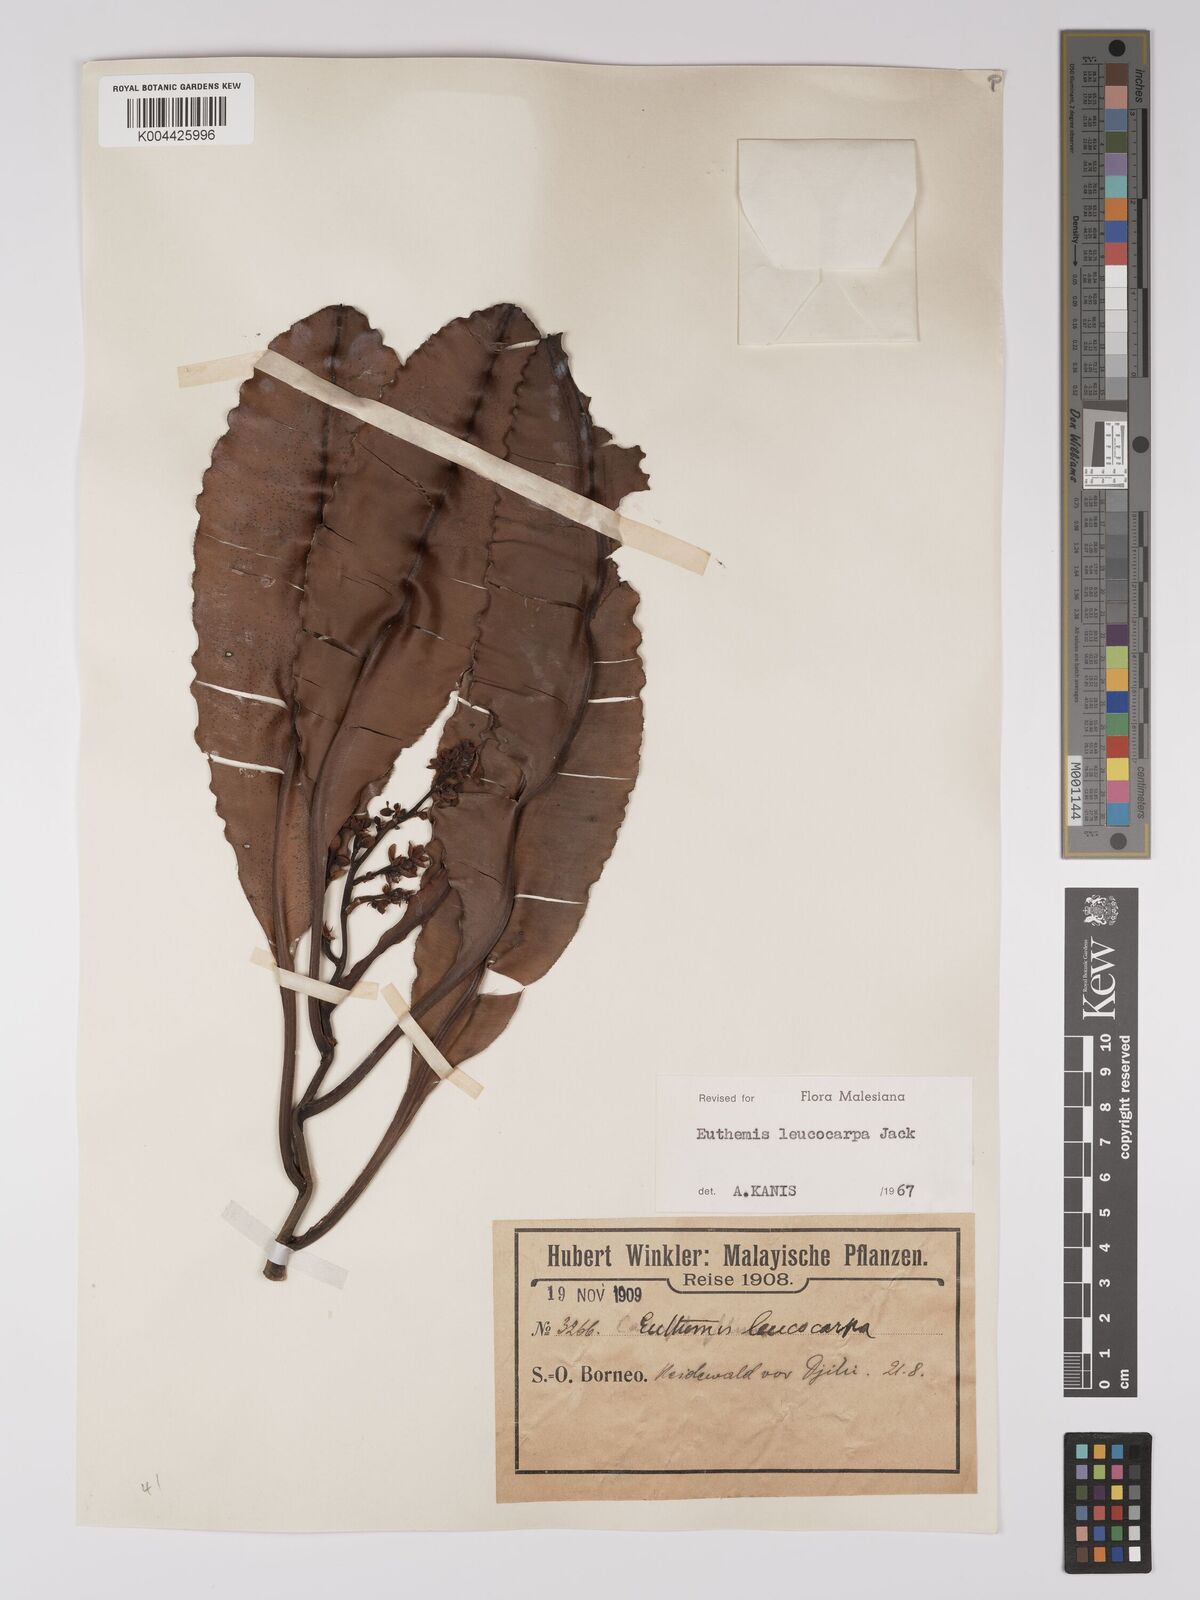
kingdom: Plantae
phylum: Tracheophyta
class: Magnoliopsida
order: Malpighiales
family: Ochnaceae
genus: Euthemis
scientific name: Euthemis leucocarpa
